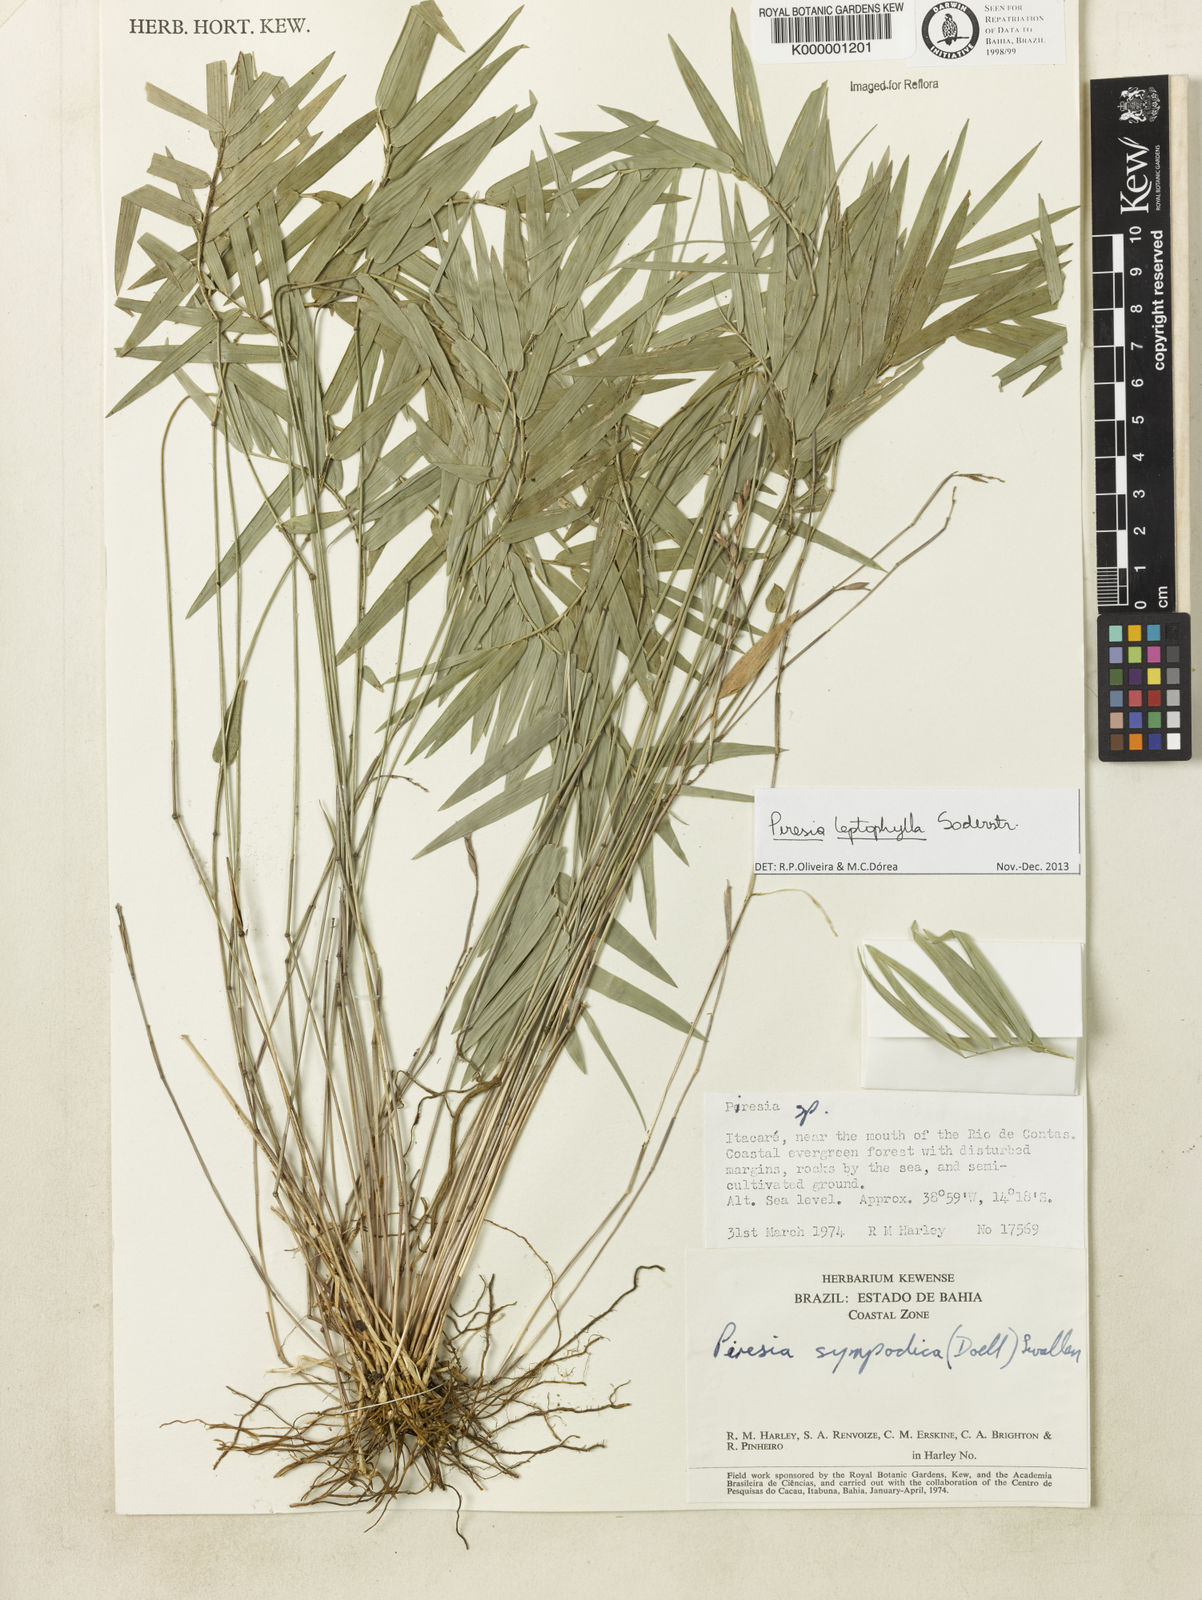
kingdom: Plantae
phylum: Tracheophyta
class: Liliopsida
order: Poales
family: Poaceae
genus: Piresia
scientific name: Piresia leptophylla
